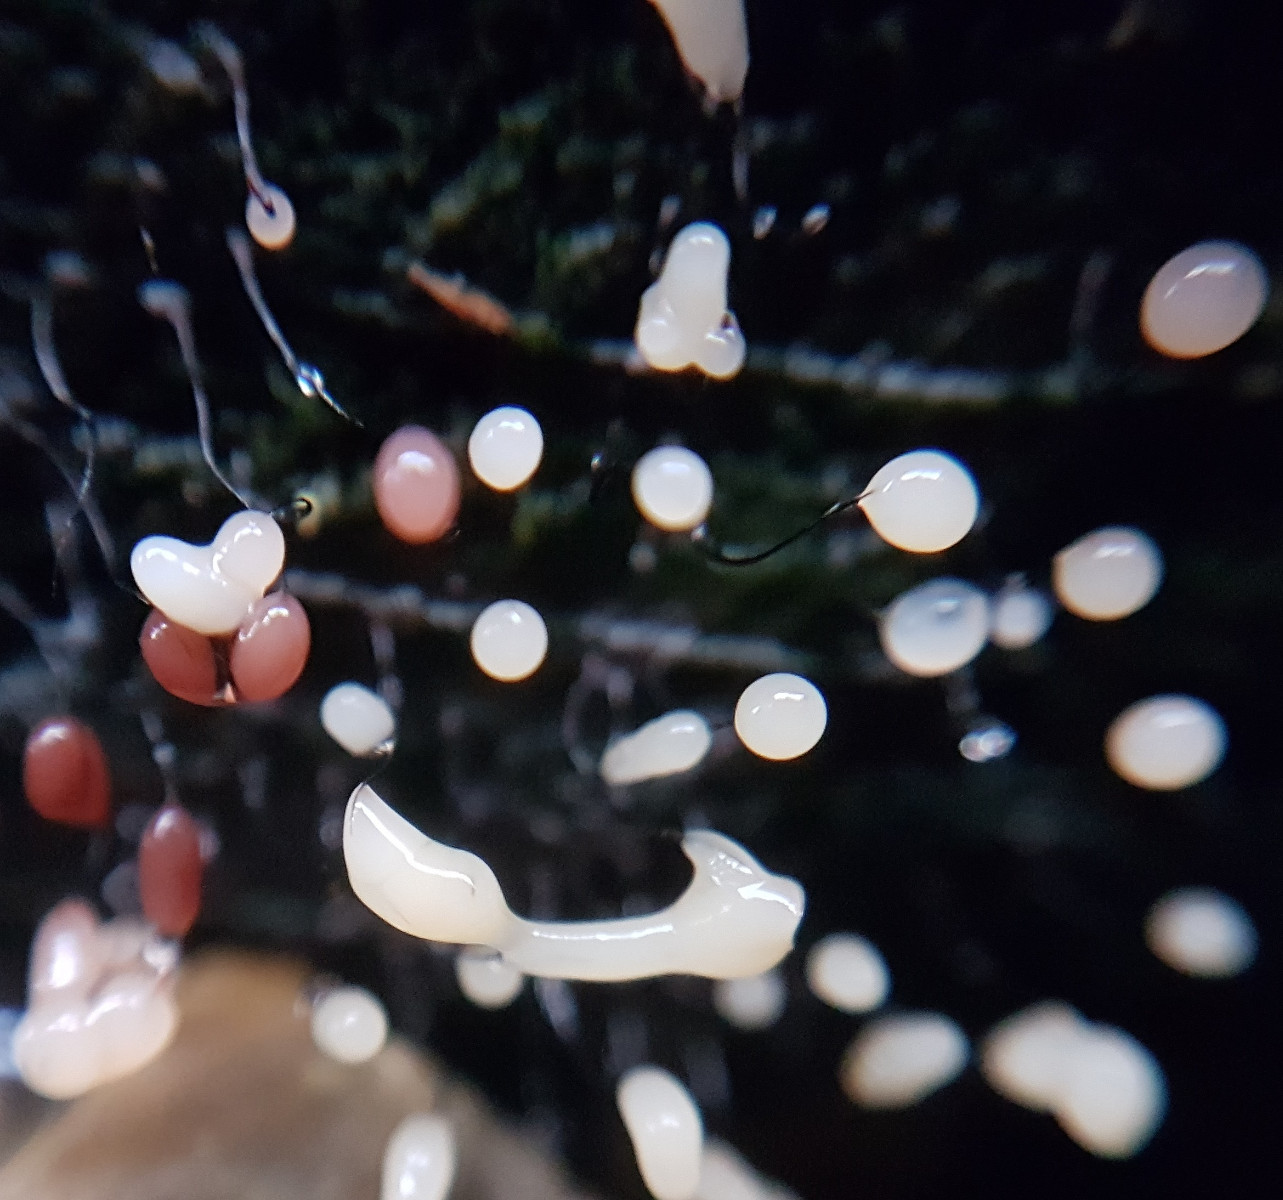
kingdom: Protozoa
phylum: Mycetozoa
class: Myxomycetes
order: Stemonitidales
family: Stemonitidaceae
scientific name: Stemonitidaceae
